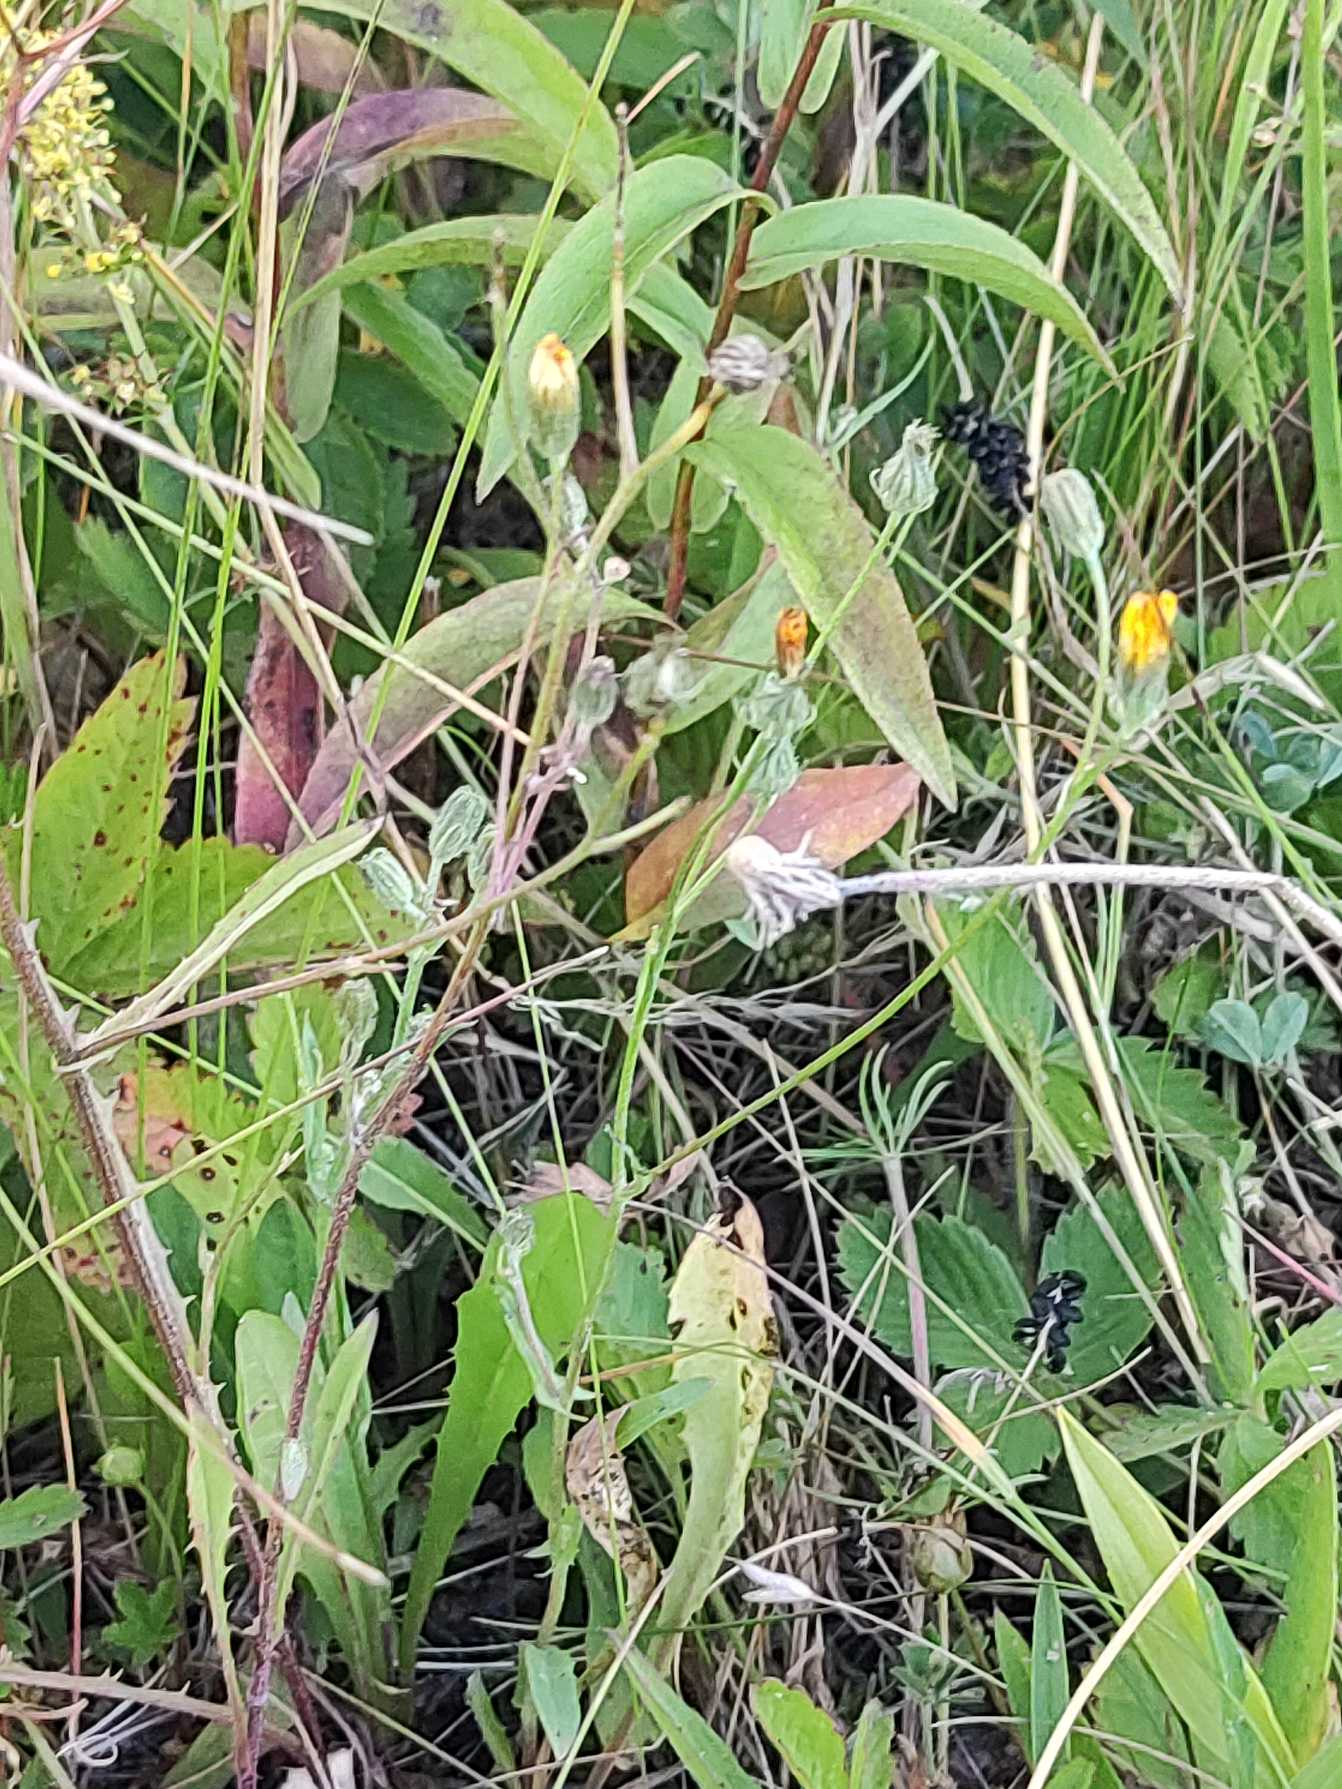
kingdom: Plantae
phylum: Tracheophyta
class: Magnoliopsida
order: Asterales
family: Asteraceae
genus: Crepis
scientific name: Crepis capillaris
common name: Grøn høgeskæg
